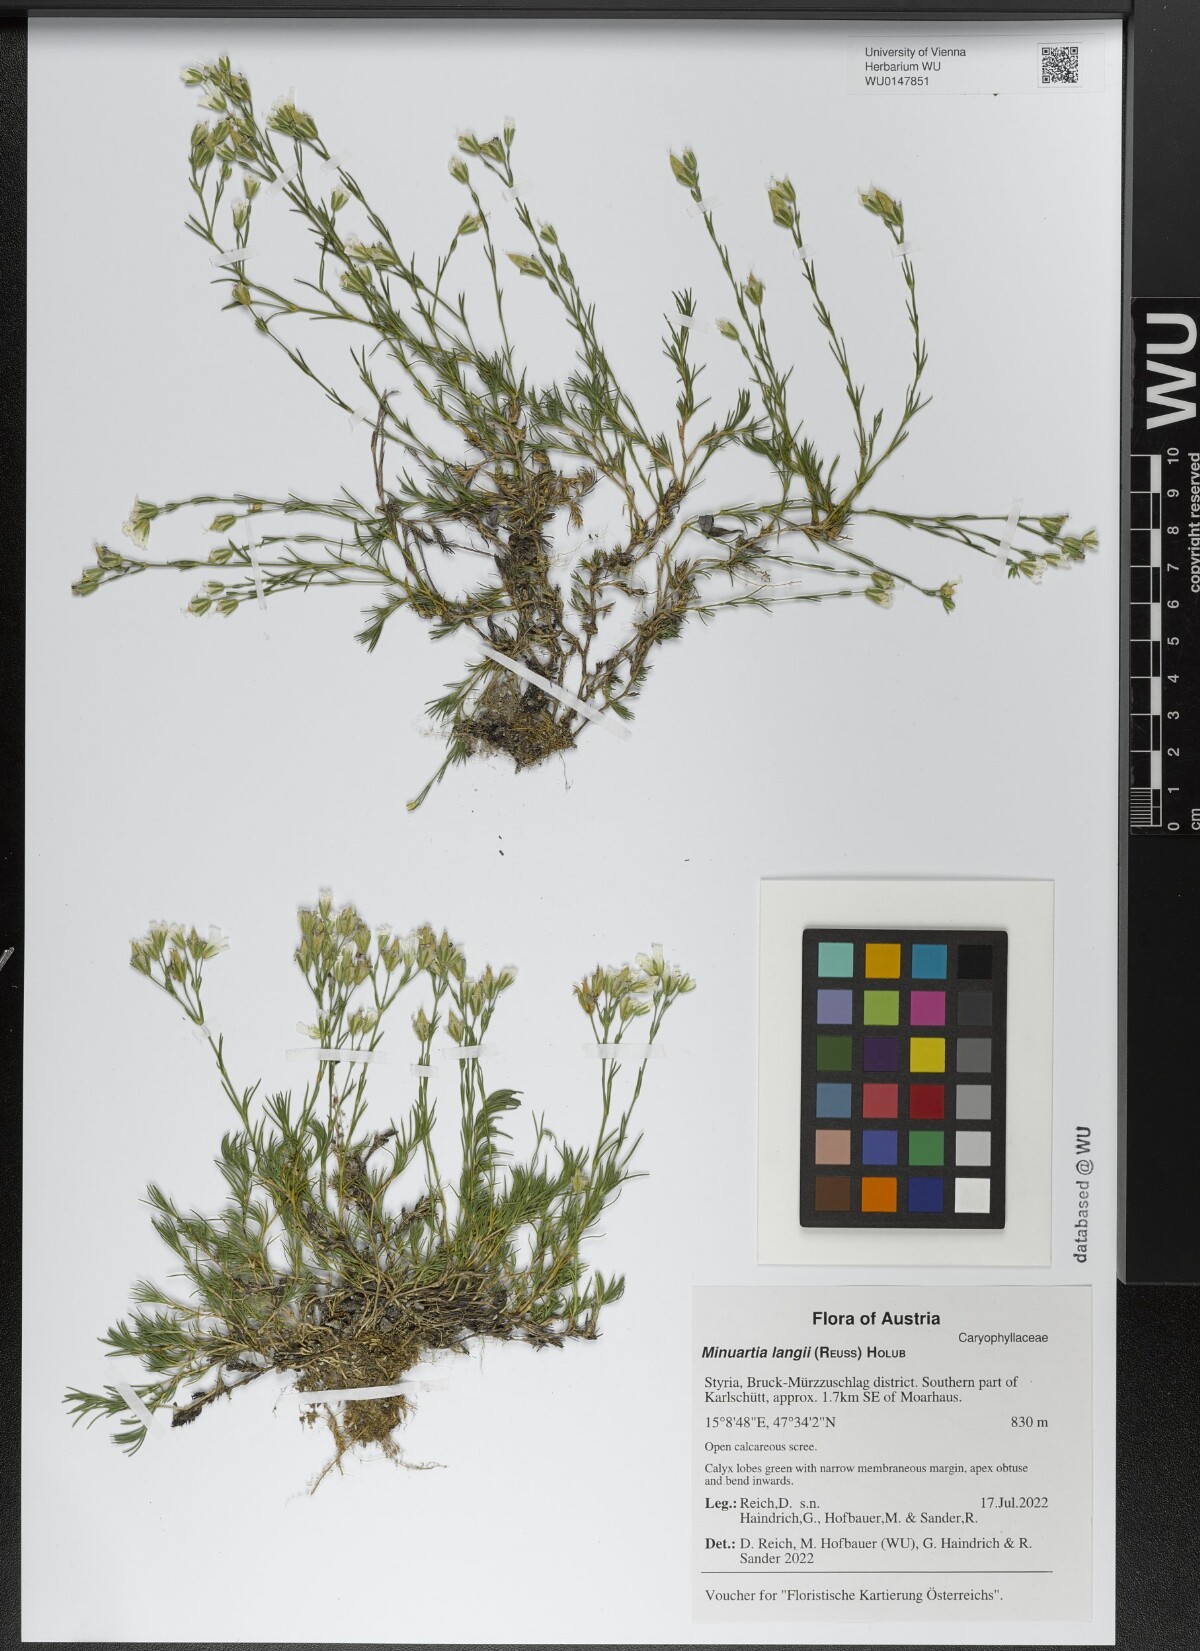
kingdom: Plantae
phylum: Tracheophyta
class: Magnoliopsida
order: Caryophyllales
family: Caryophyllaceae
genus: Cherleria
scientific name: Cherleria langii
